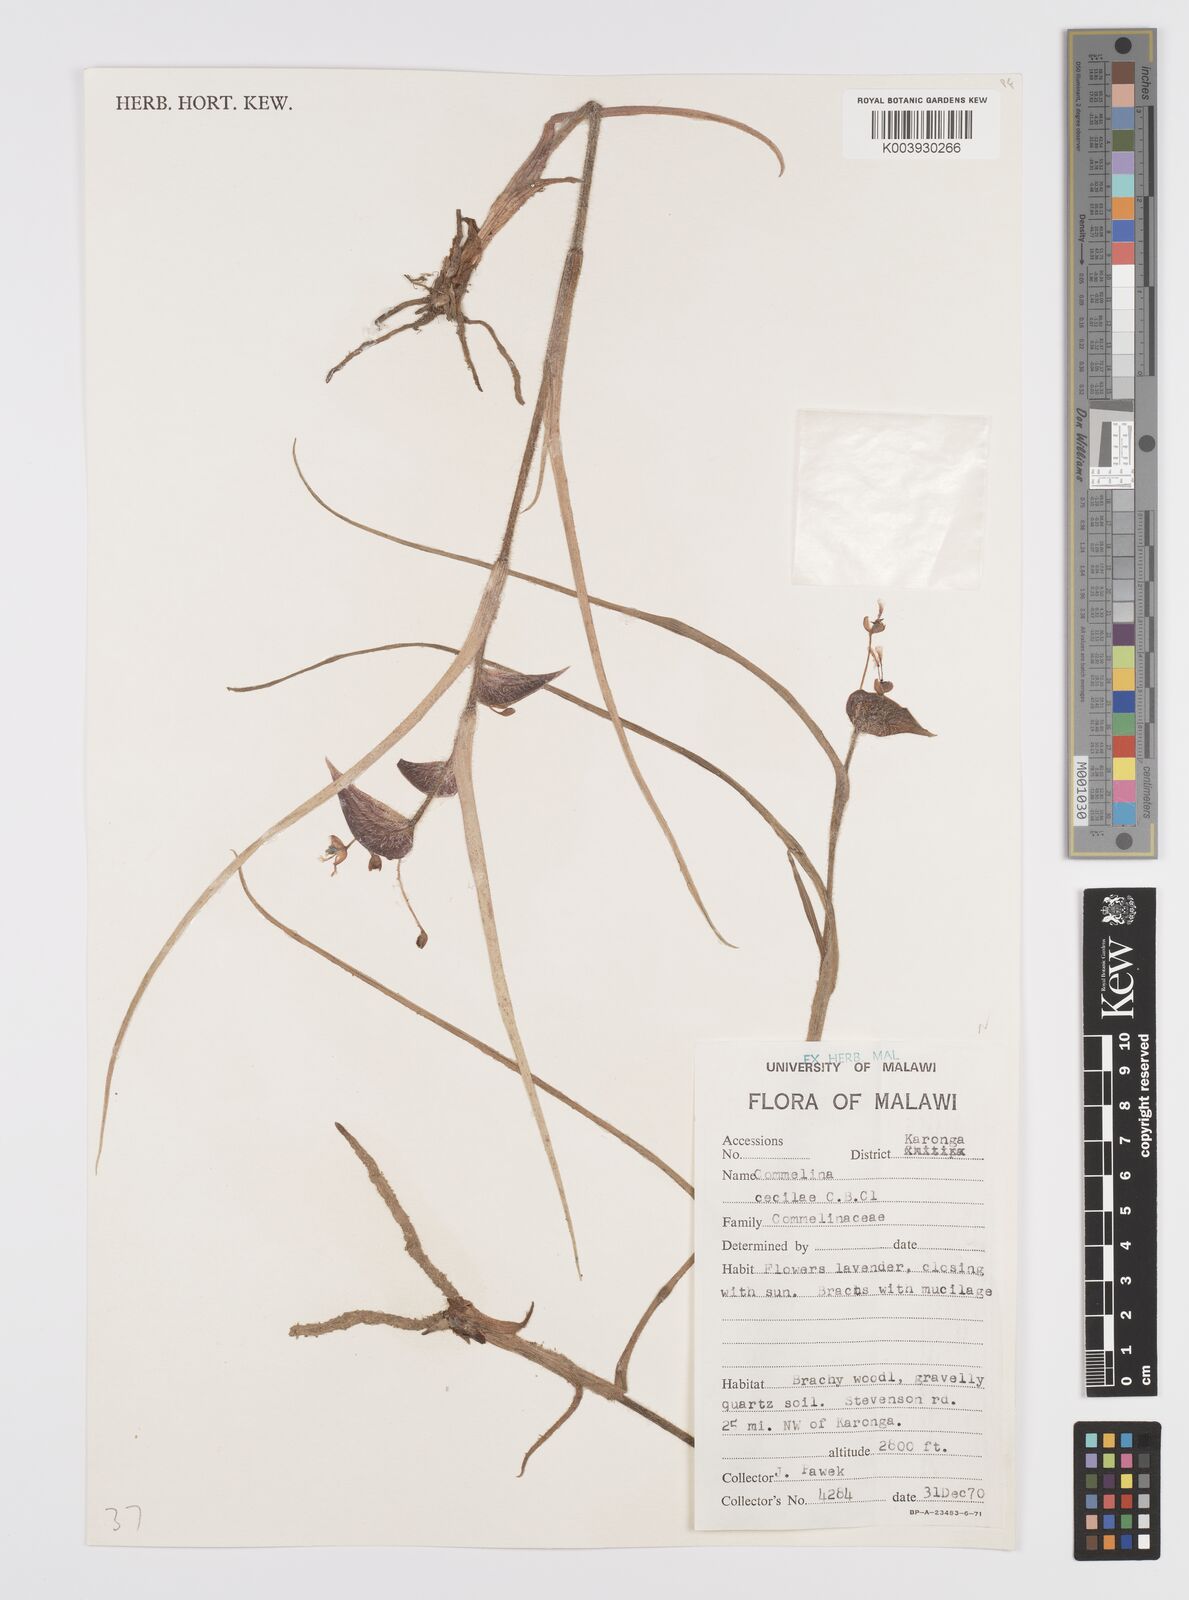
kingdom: Plantae
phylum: Tracheophyta
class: Liliopsida
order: Commelinales
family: Commelinaceae
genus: Commelina
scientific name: Commelina schweinfurthii
